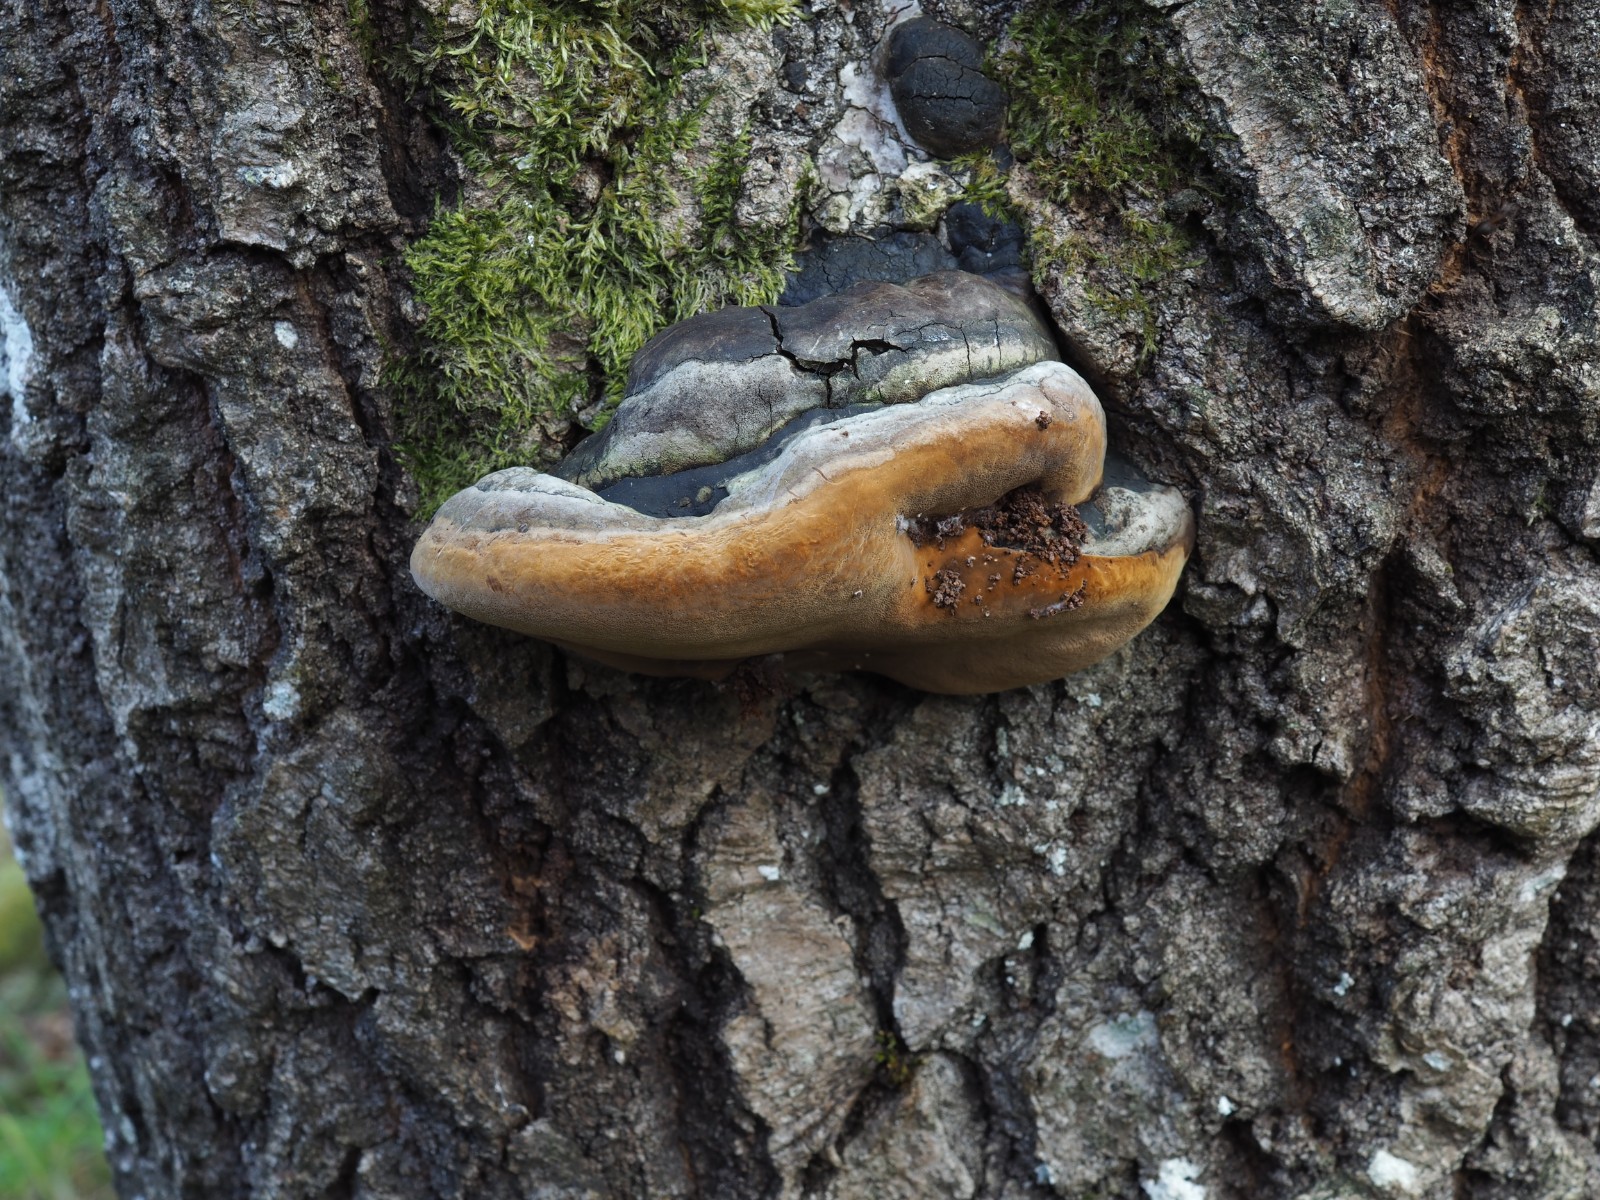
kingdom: Fungi
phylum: Basidiomycota
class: Agaricomycetes
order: Hymenochaetales
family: Hymenochaetaceae
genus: Phellinus
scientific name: Phellinus populicola
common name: poppel-ildporesvamp
